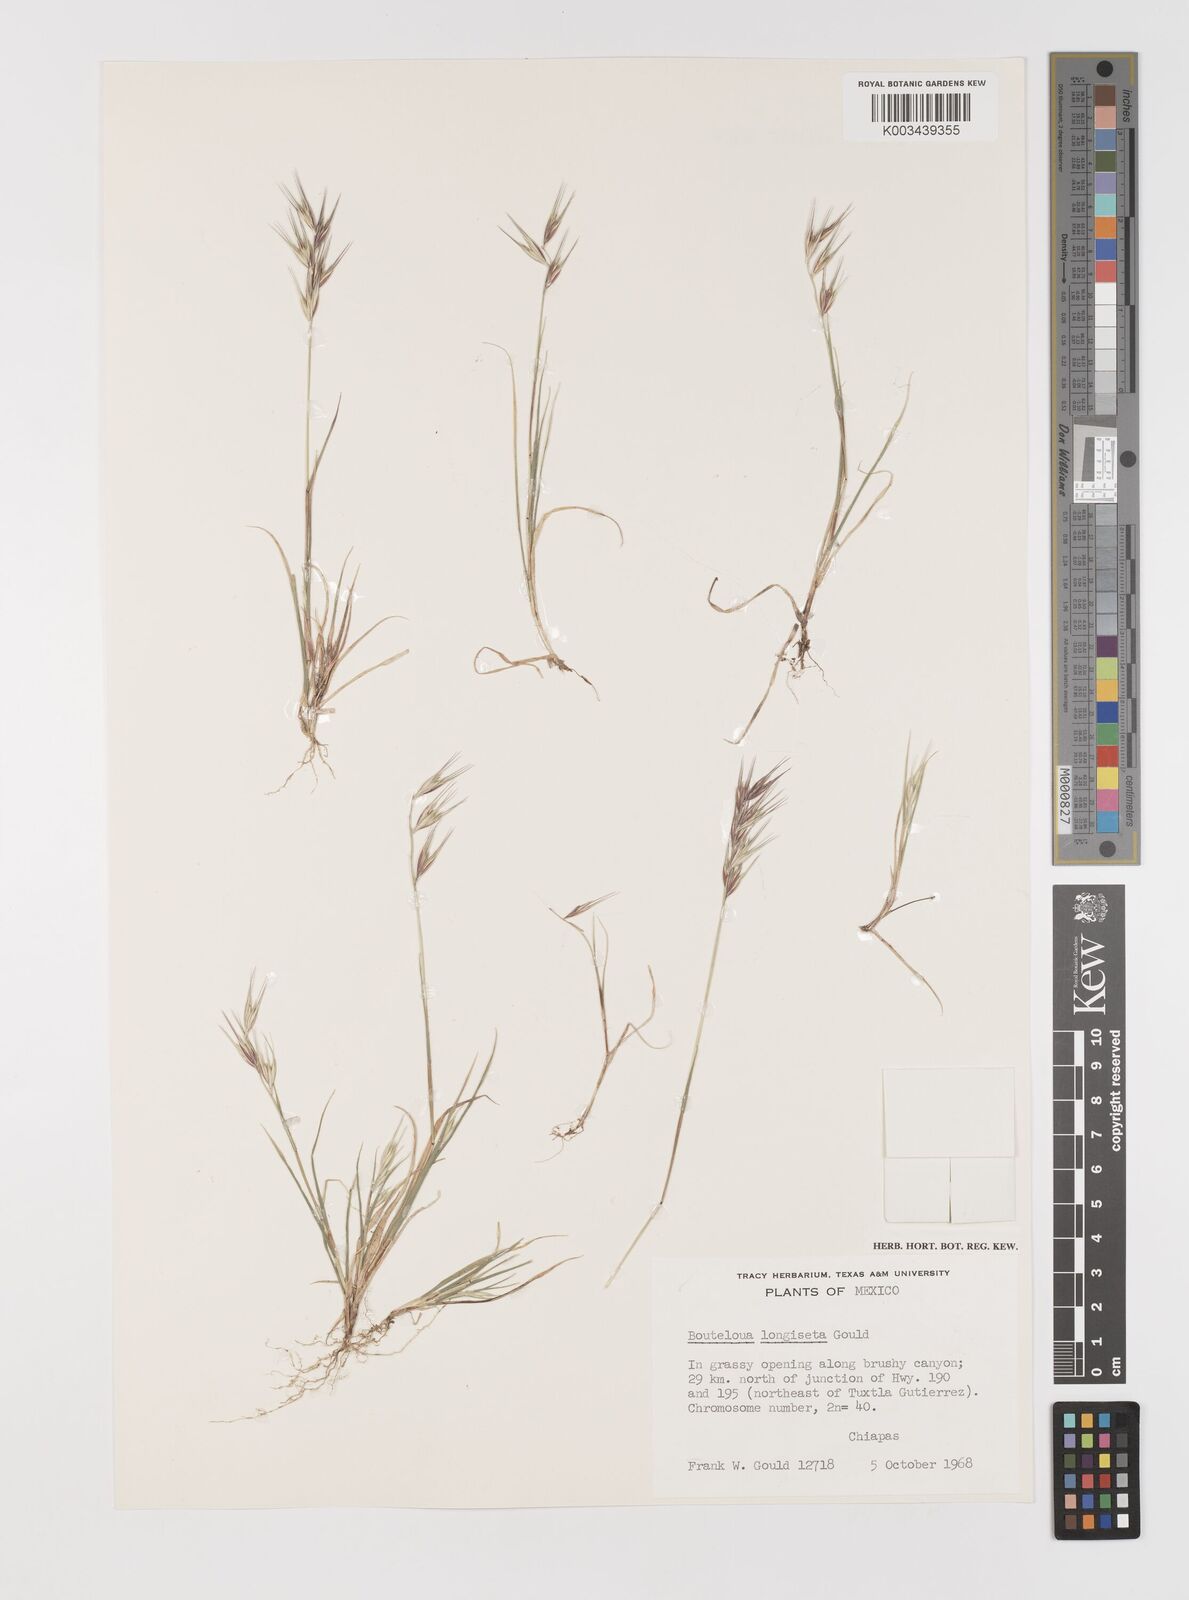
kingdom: Plantae
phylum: Tracheophyta
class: Liliopsida
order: Poales
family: Poaceae
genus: Bouteloua
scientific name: Bouteloua alamosana
